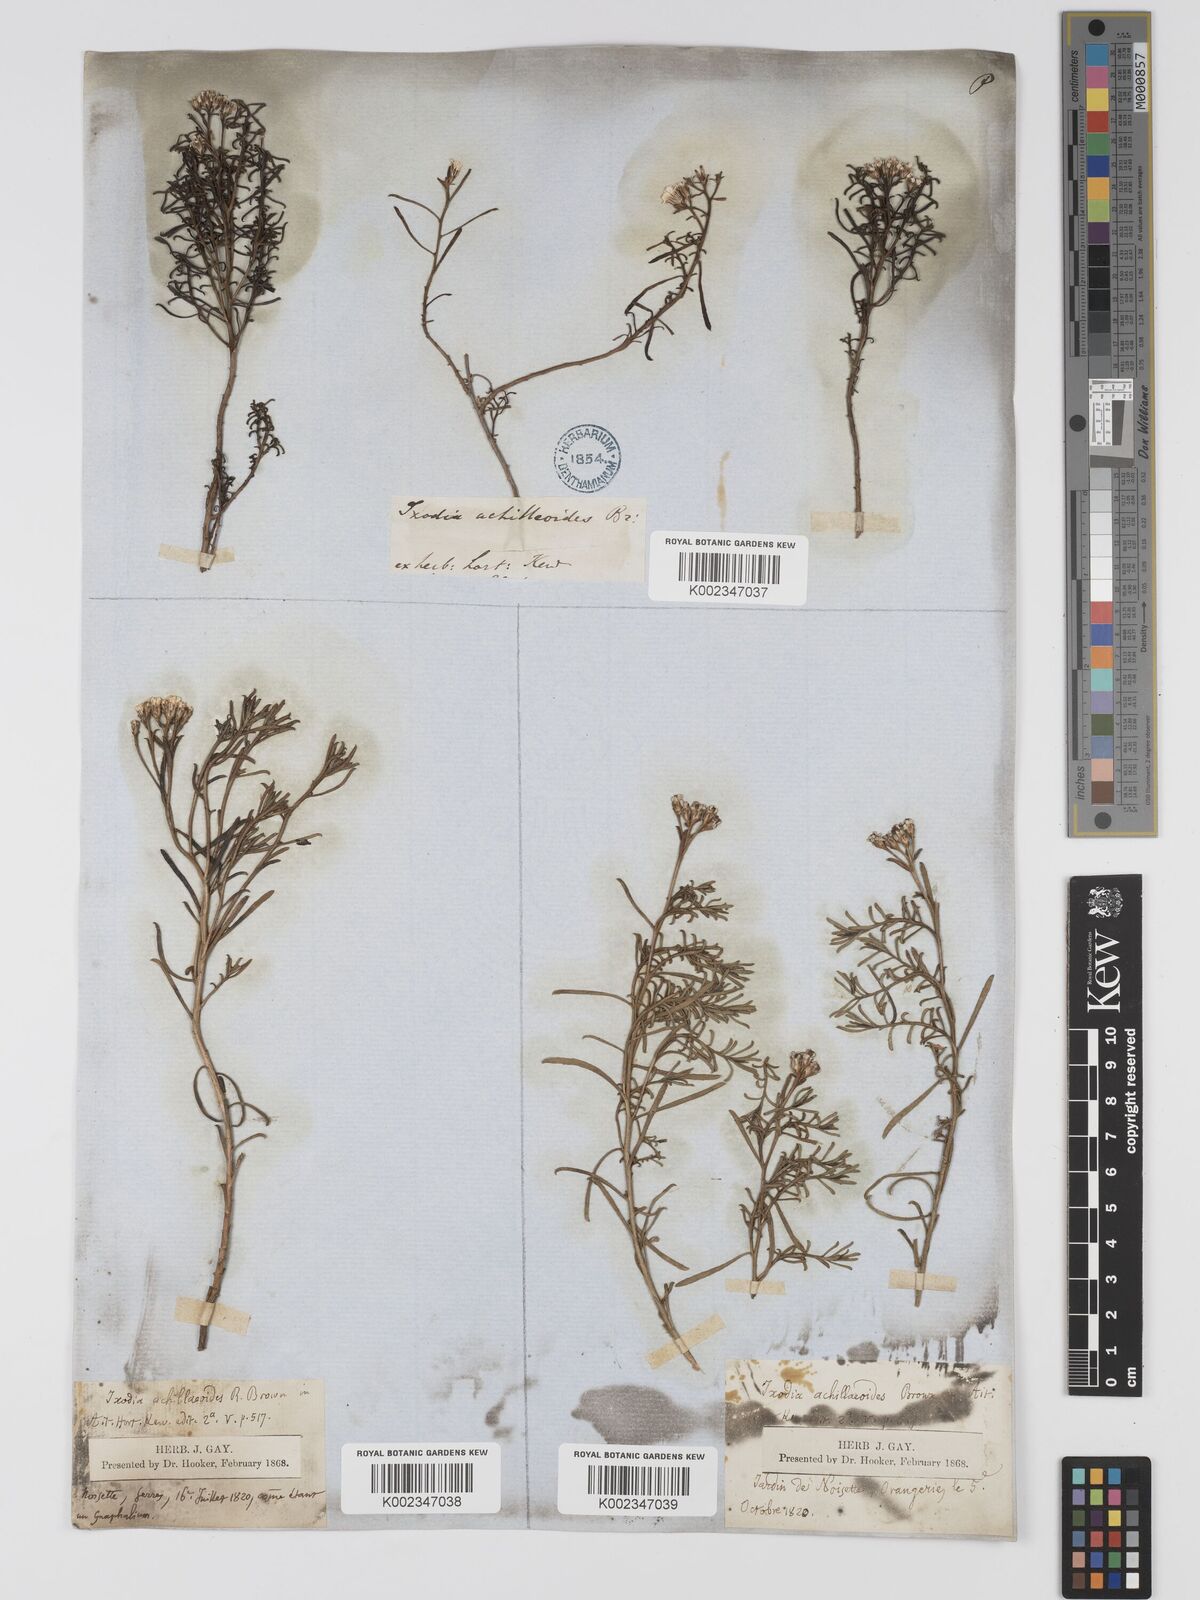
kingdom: Plantae
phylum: Tracheophyta
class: Magnoliopsida
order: Asterales
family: Asteraceae
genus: Ixodia
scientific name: Ixodia achilleoides
